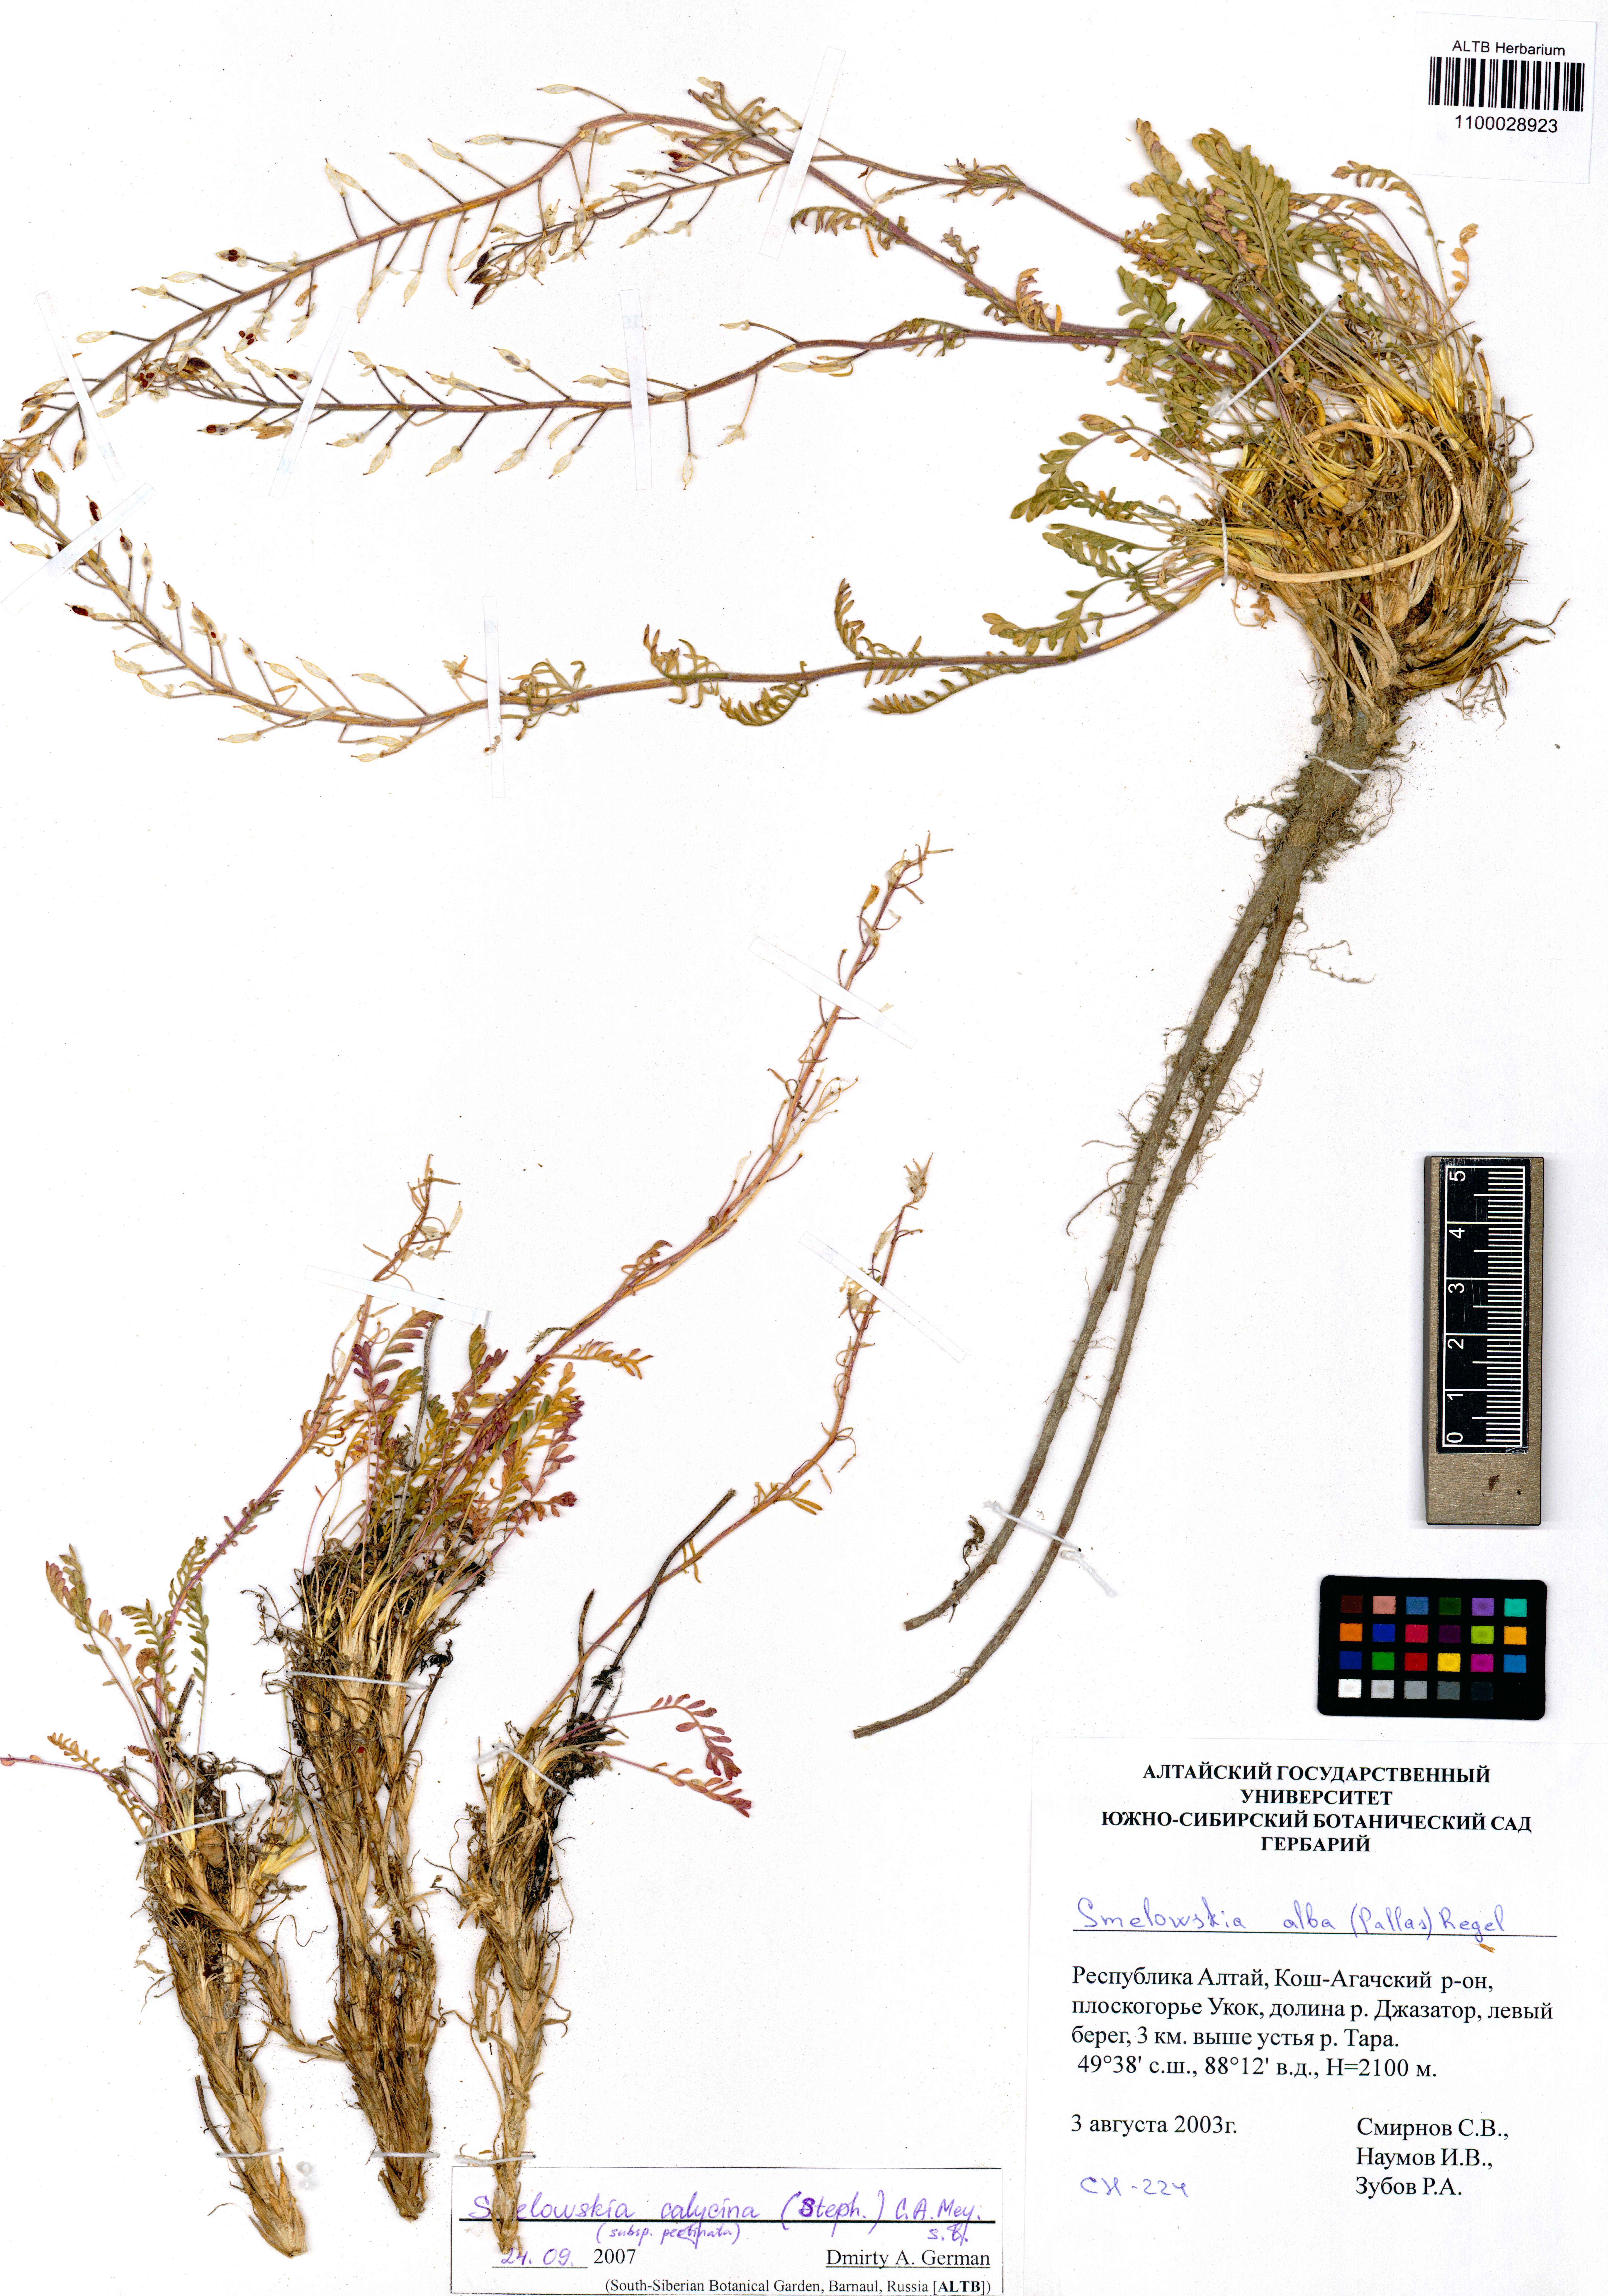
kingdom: Plantae
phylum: Tracheophyta
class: Magnoliopsida
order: Brassicales
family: Brassicaceae
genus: Smelowskia
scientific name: Smelowskia calycina
